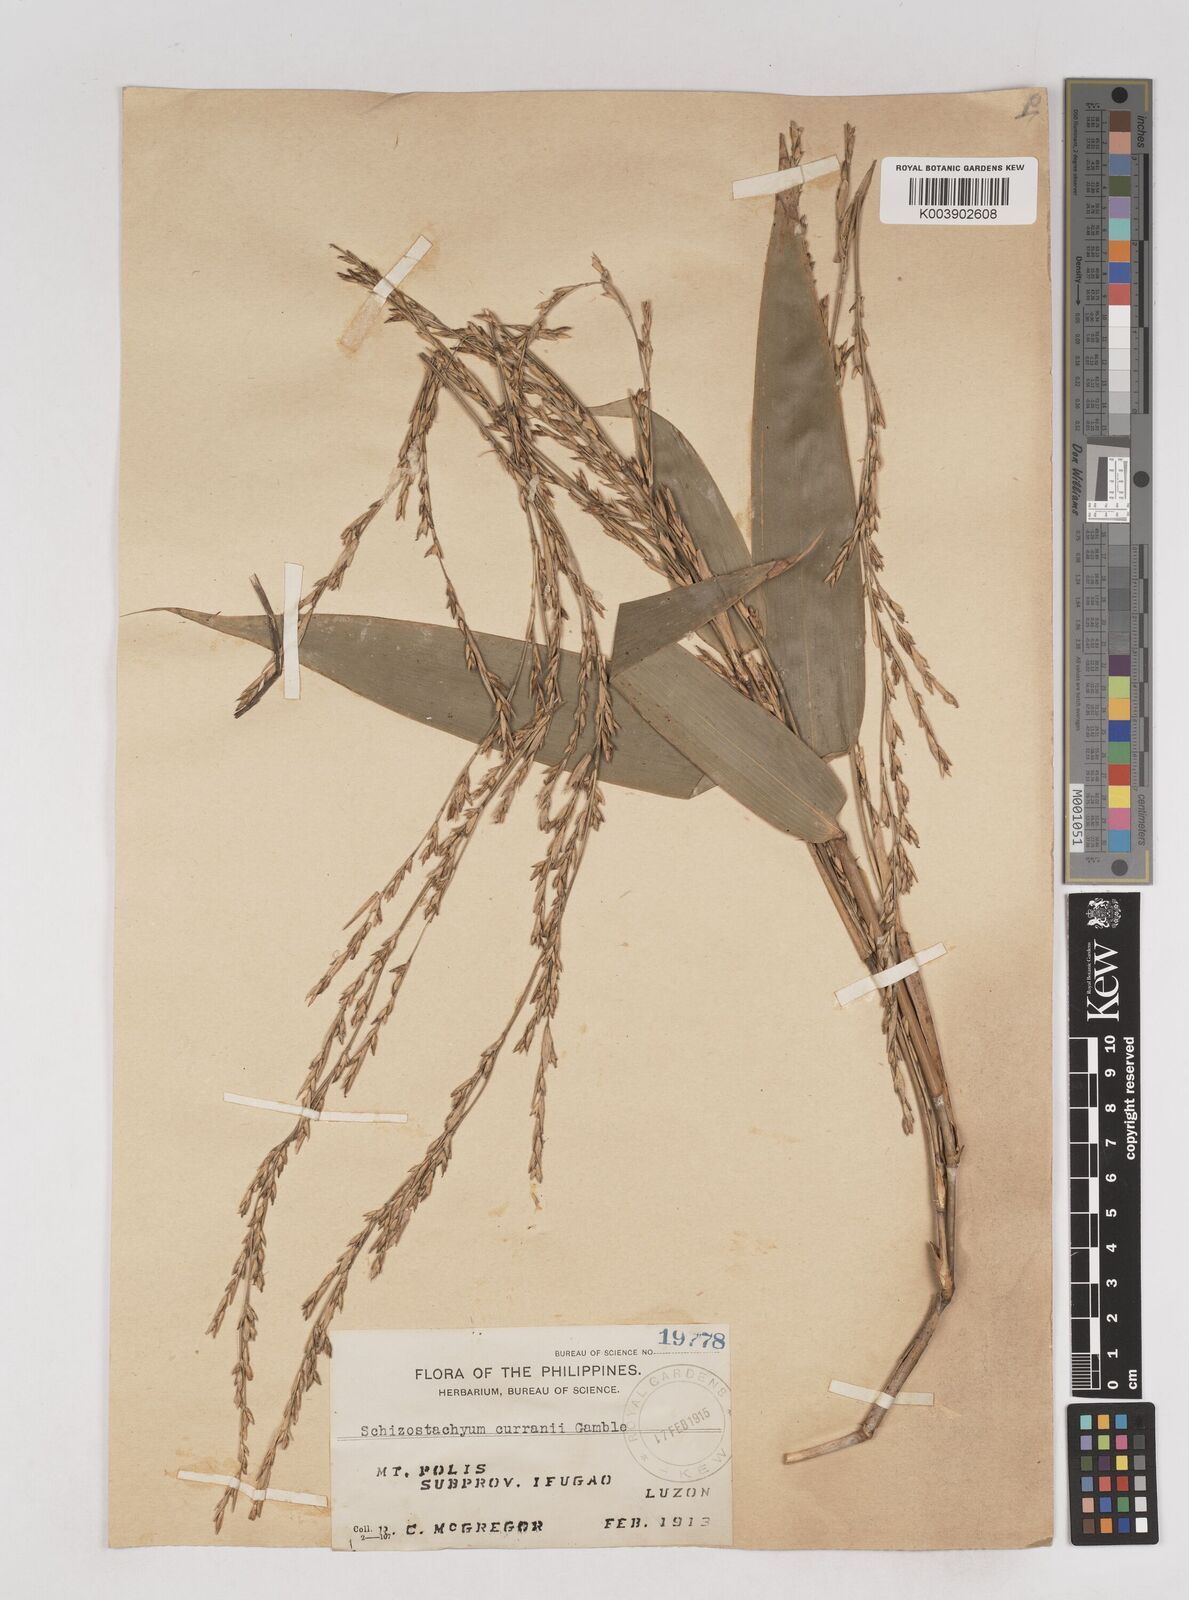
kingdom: Plantae
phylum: Tracheophyta
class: Liliopsida
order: Poales
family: Poaceae
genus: Schizostachyum
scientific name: Schizostachyum curranii
